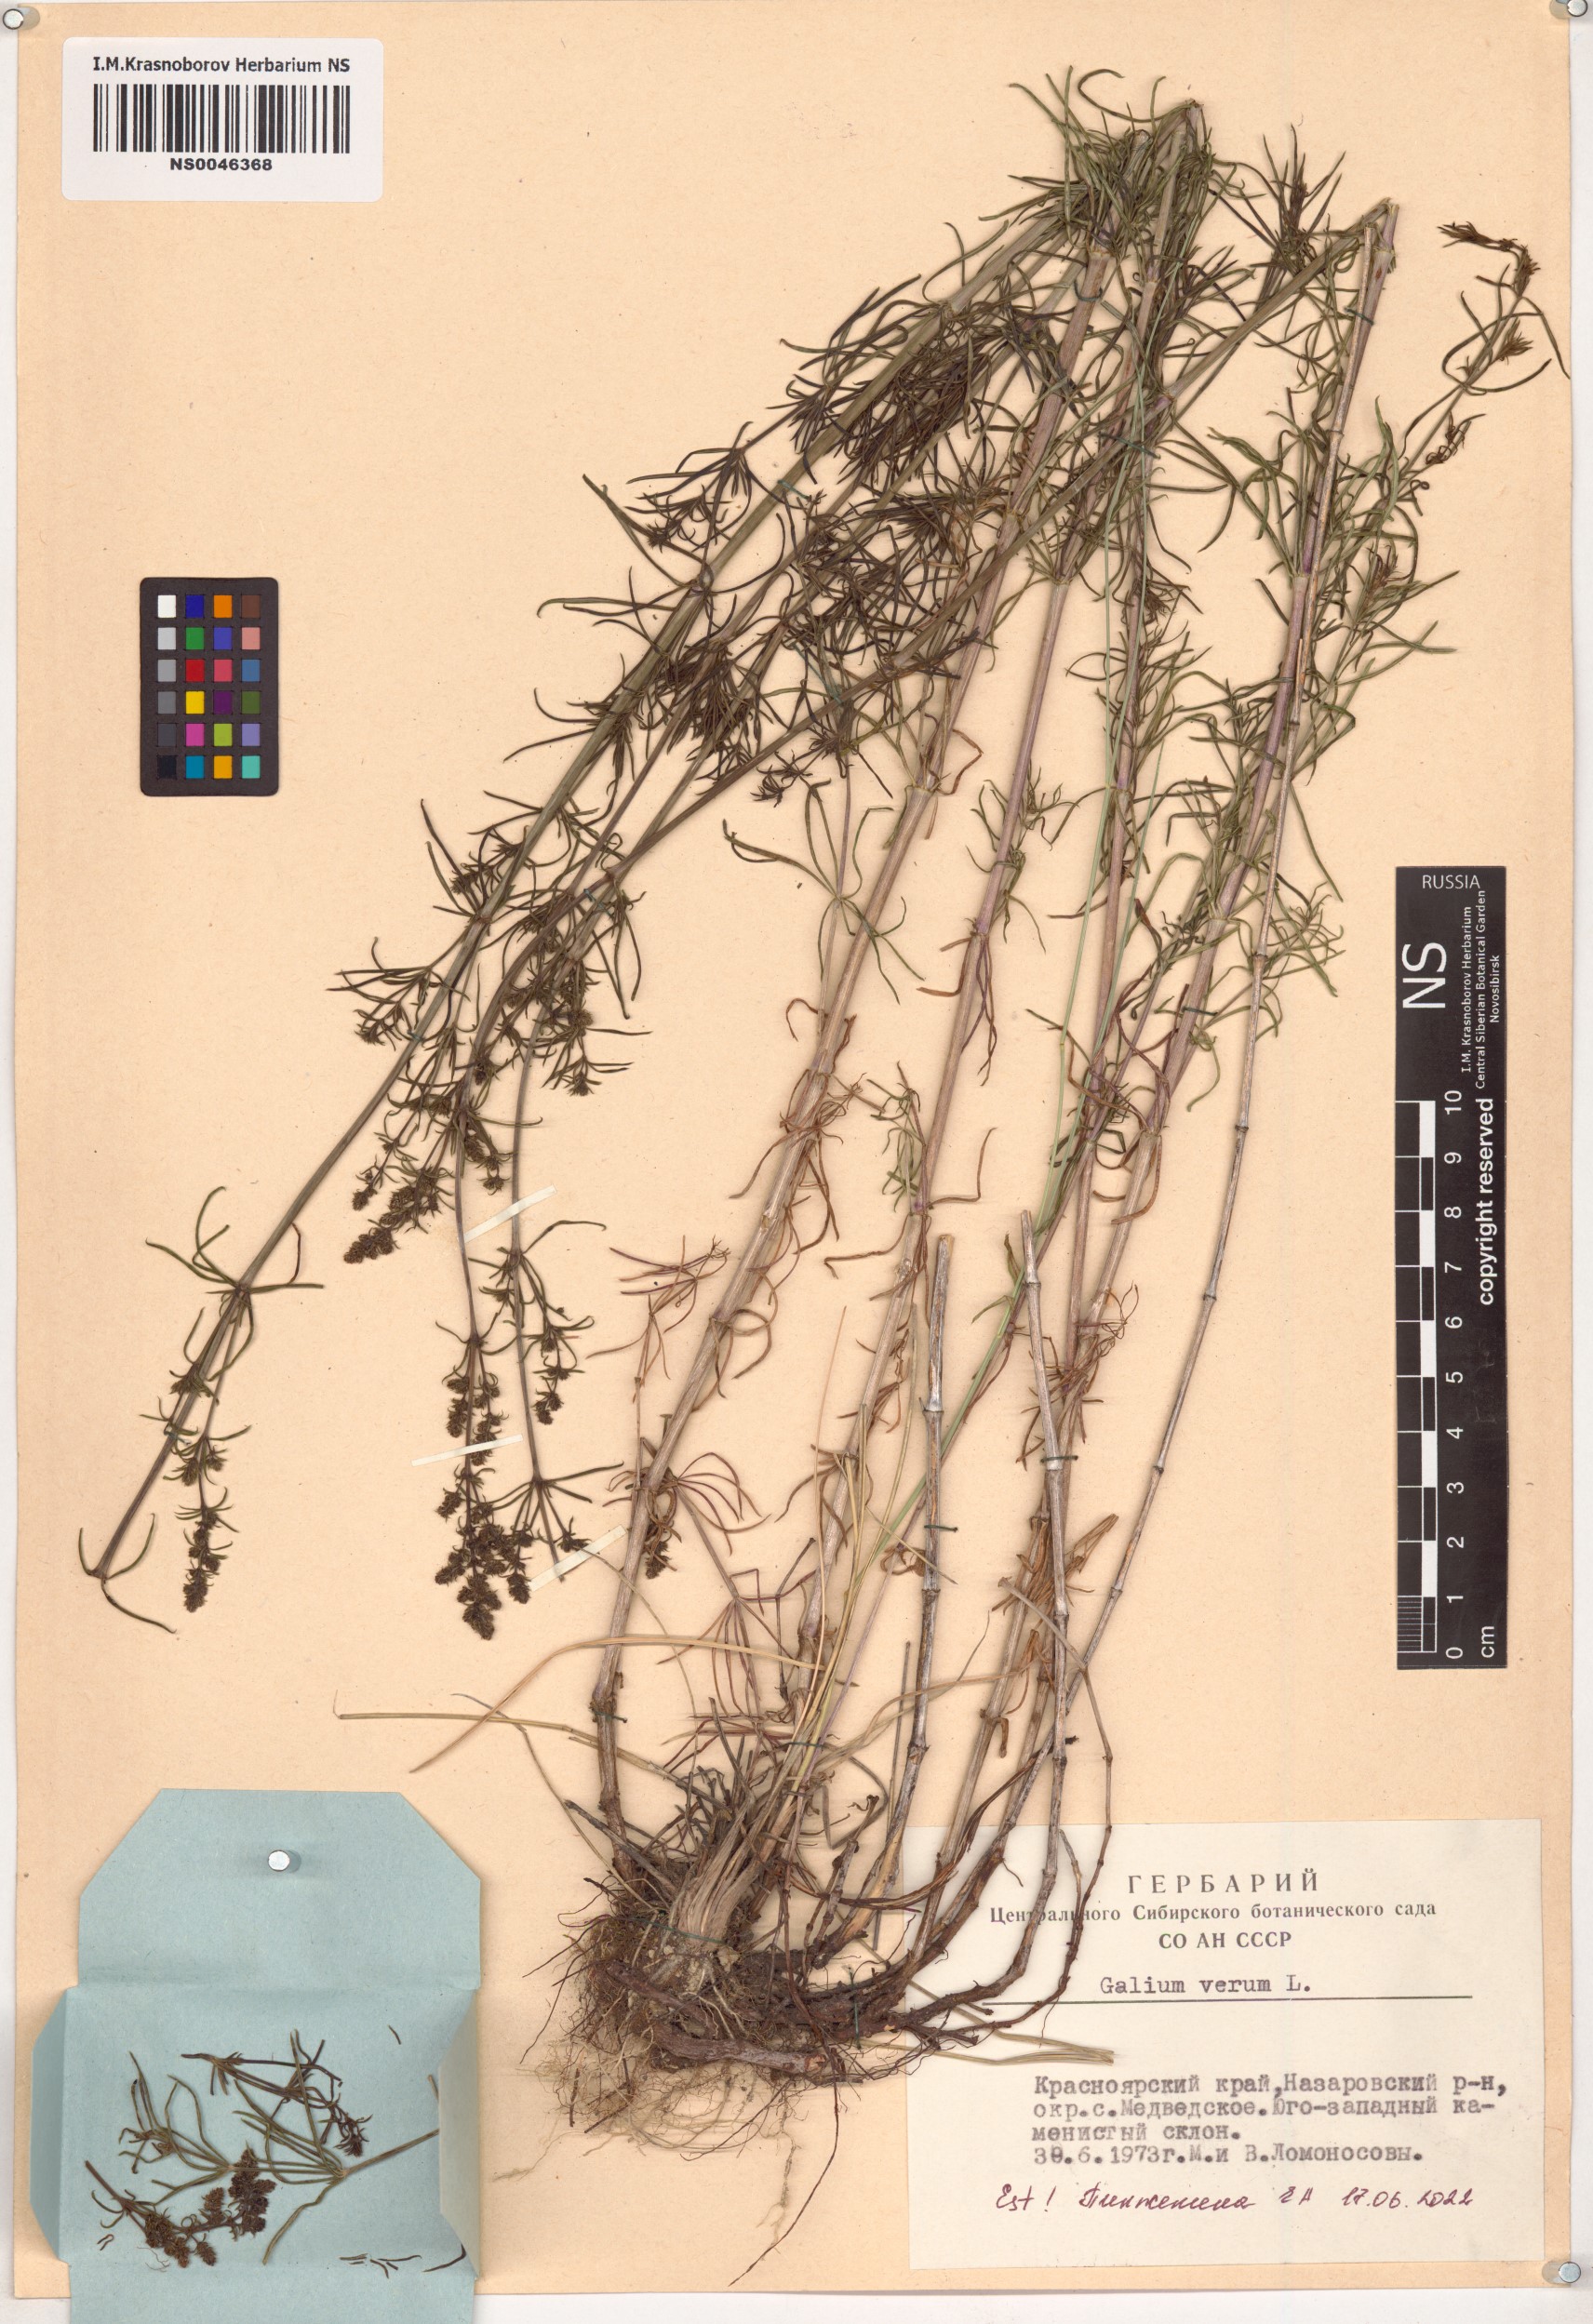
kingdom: Plantae
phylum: Tracheophyta
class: Magnoliopsida
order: Gentianales
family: Rubiaceae
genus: Galium
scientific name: Galium verum
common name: Lady's bedstraw
